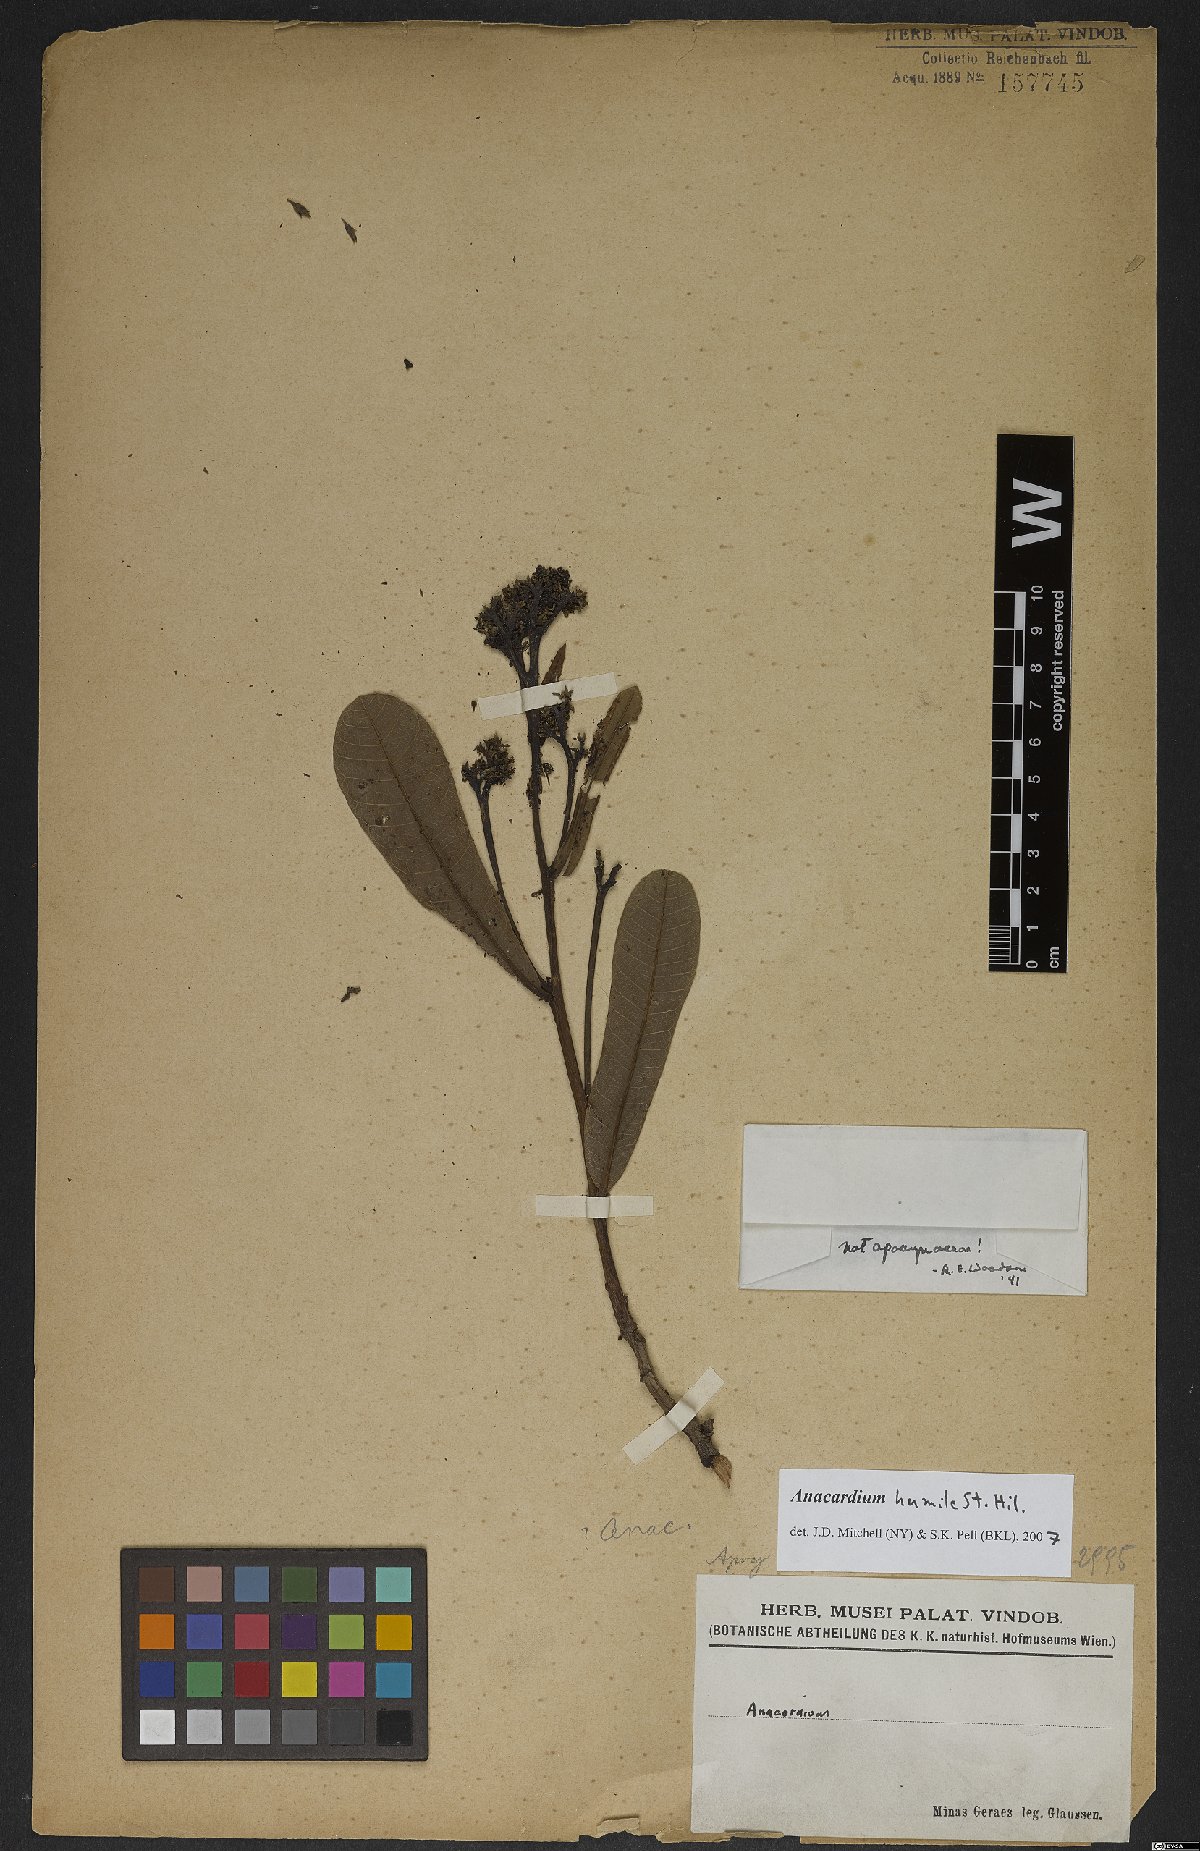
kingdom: Plantae
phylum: Tracheophyta
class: Magnoliopsida
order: Sapindales
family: Anacardiaceae
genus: Anacardium
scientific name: Anacardium humile
